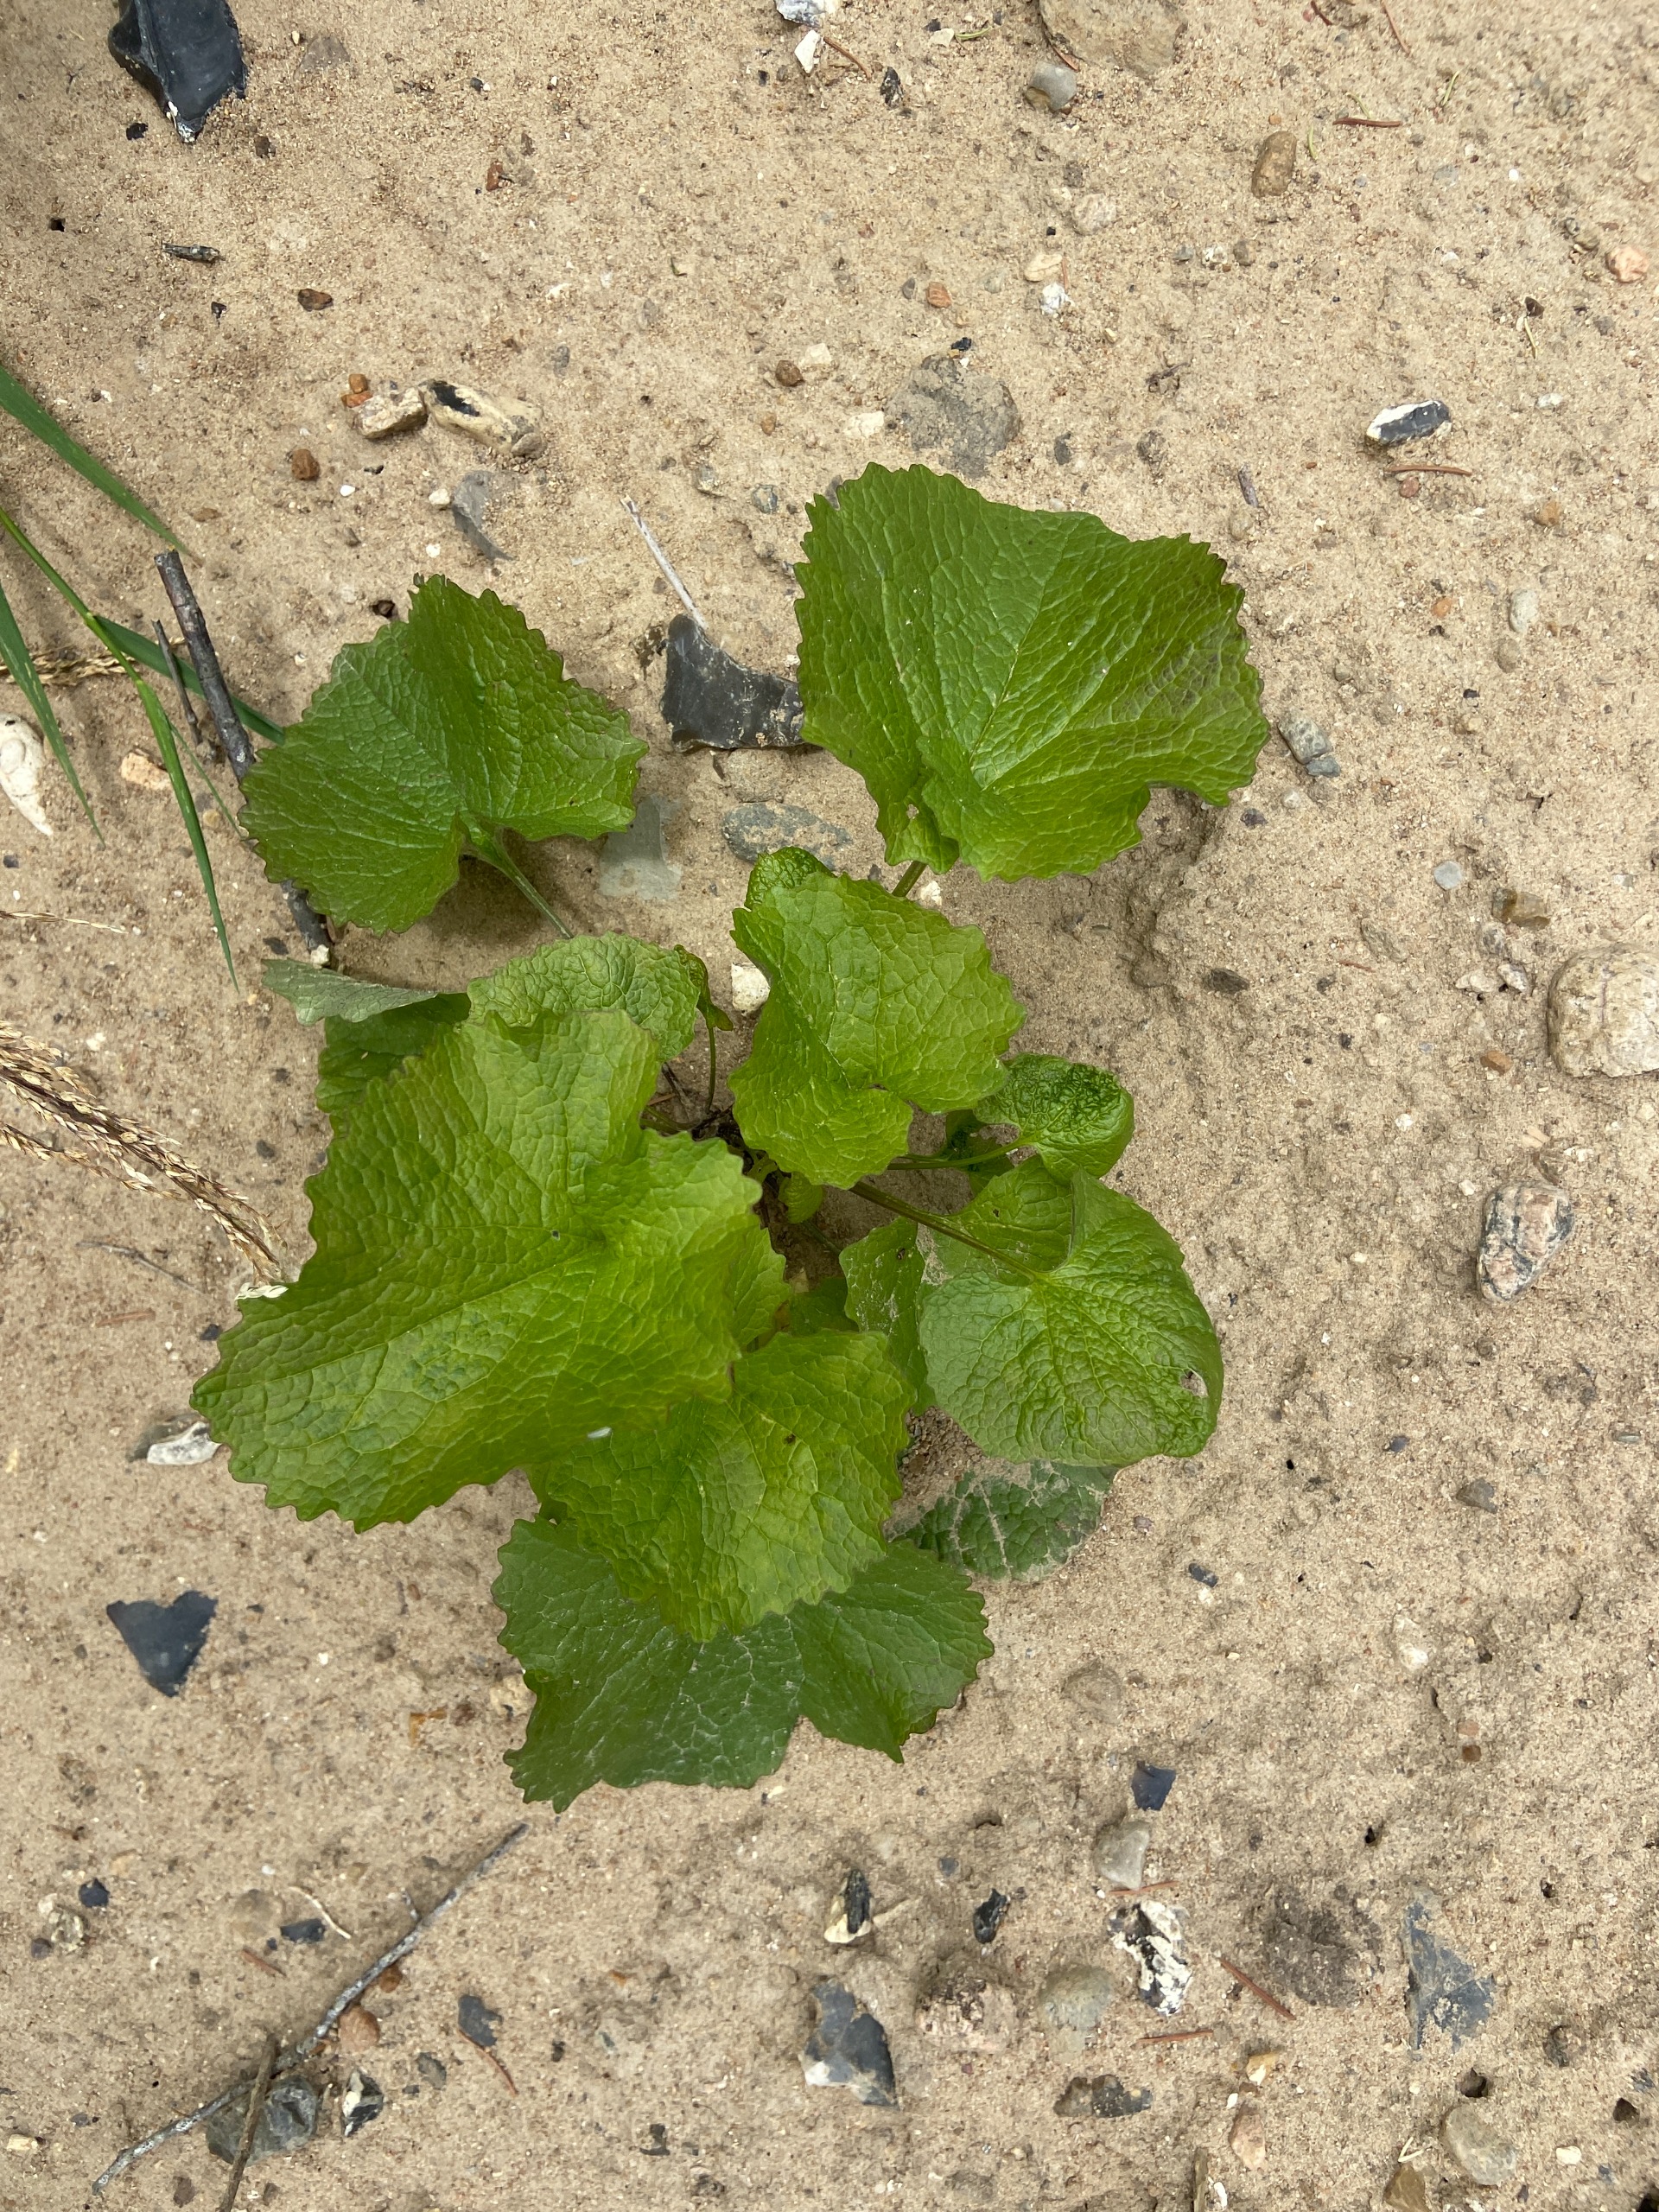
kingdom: Plantae
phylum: Tracheophyta
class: Magnoliopsida
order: Brassicales
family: Brassicaceae
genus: Alliaria
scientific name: Alliaria petiolata
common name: Løgkarse
